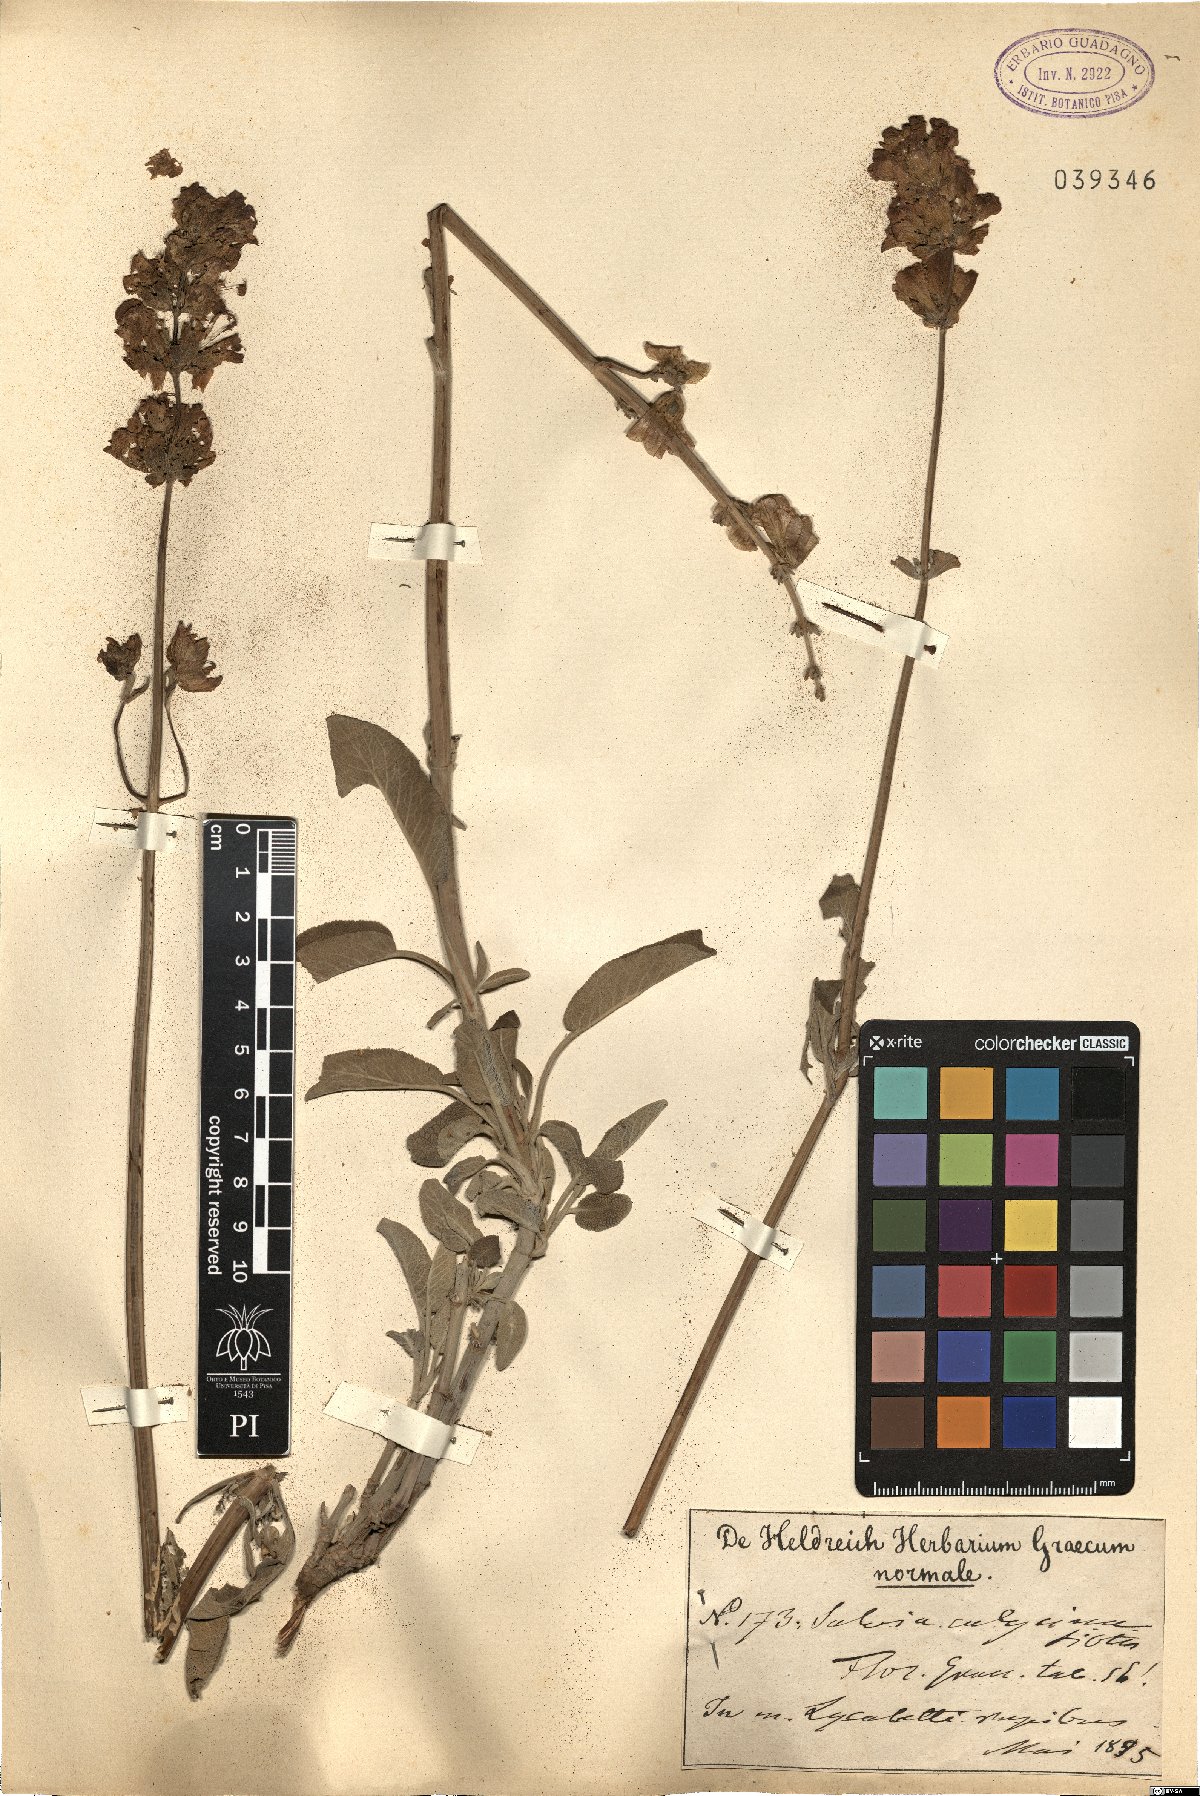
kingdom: Plantae
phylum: Tracheophyta
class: Magnoliopsida
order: Lamiales
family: Lamiaceae
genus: Salvia
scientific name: Salvia pomifera
